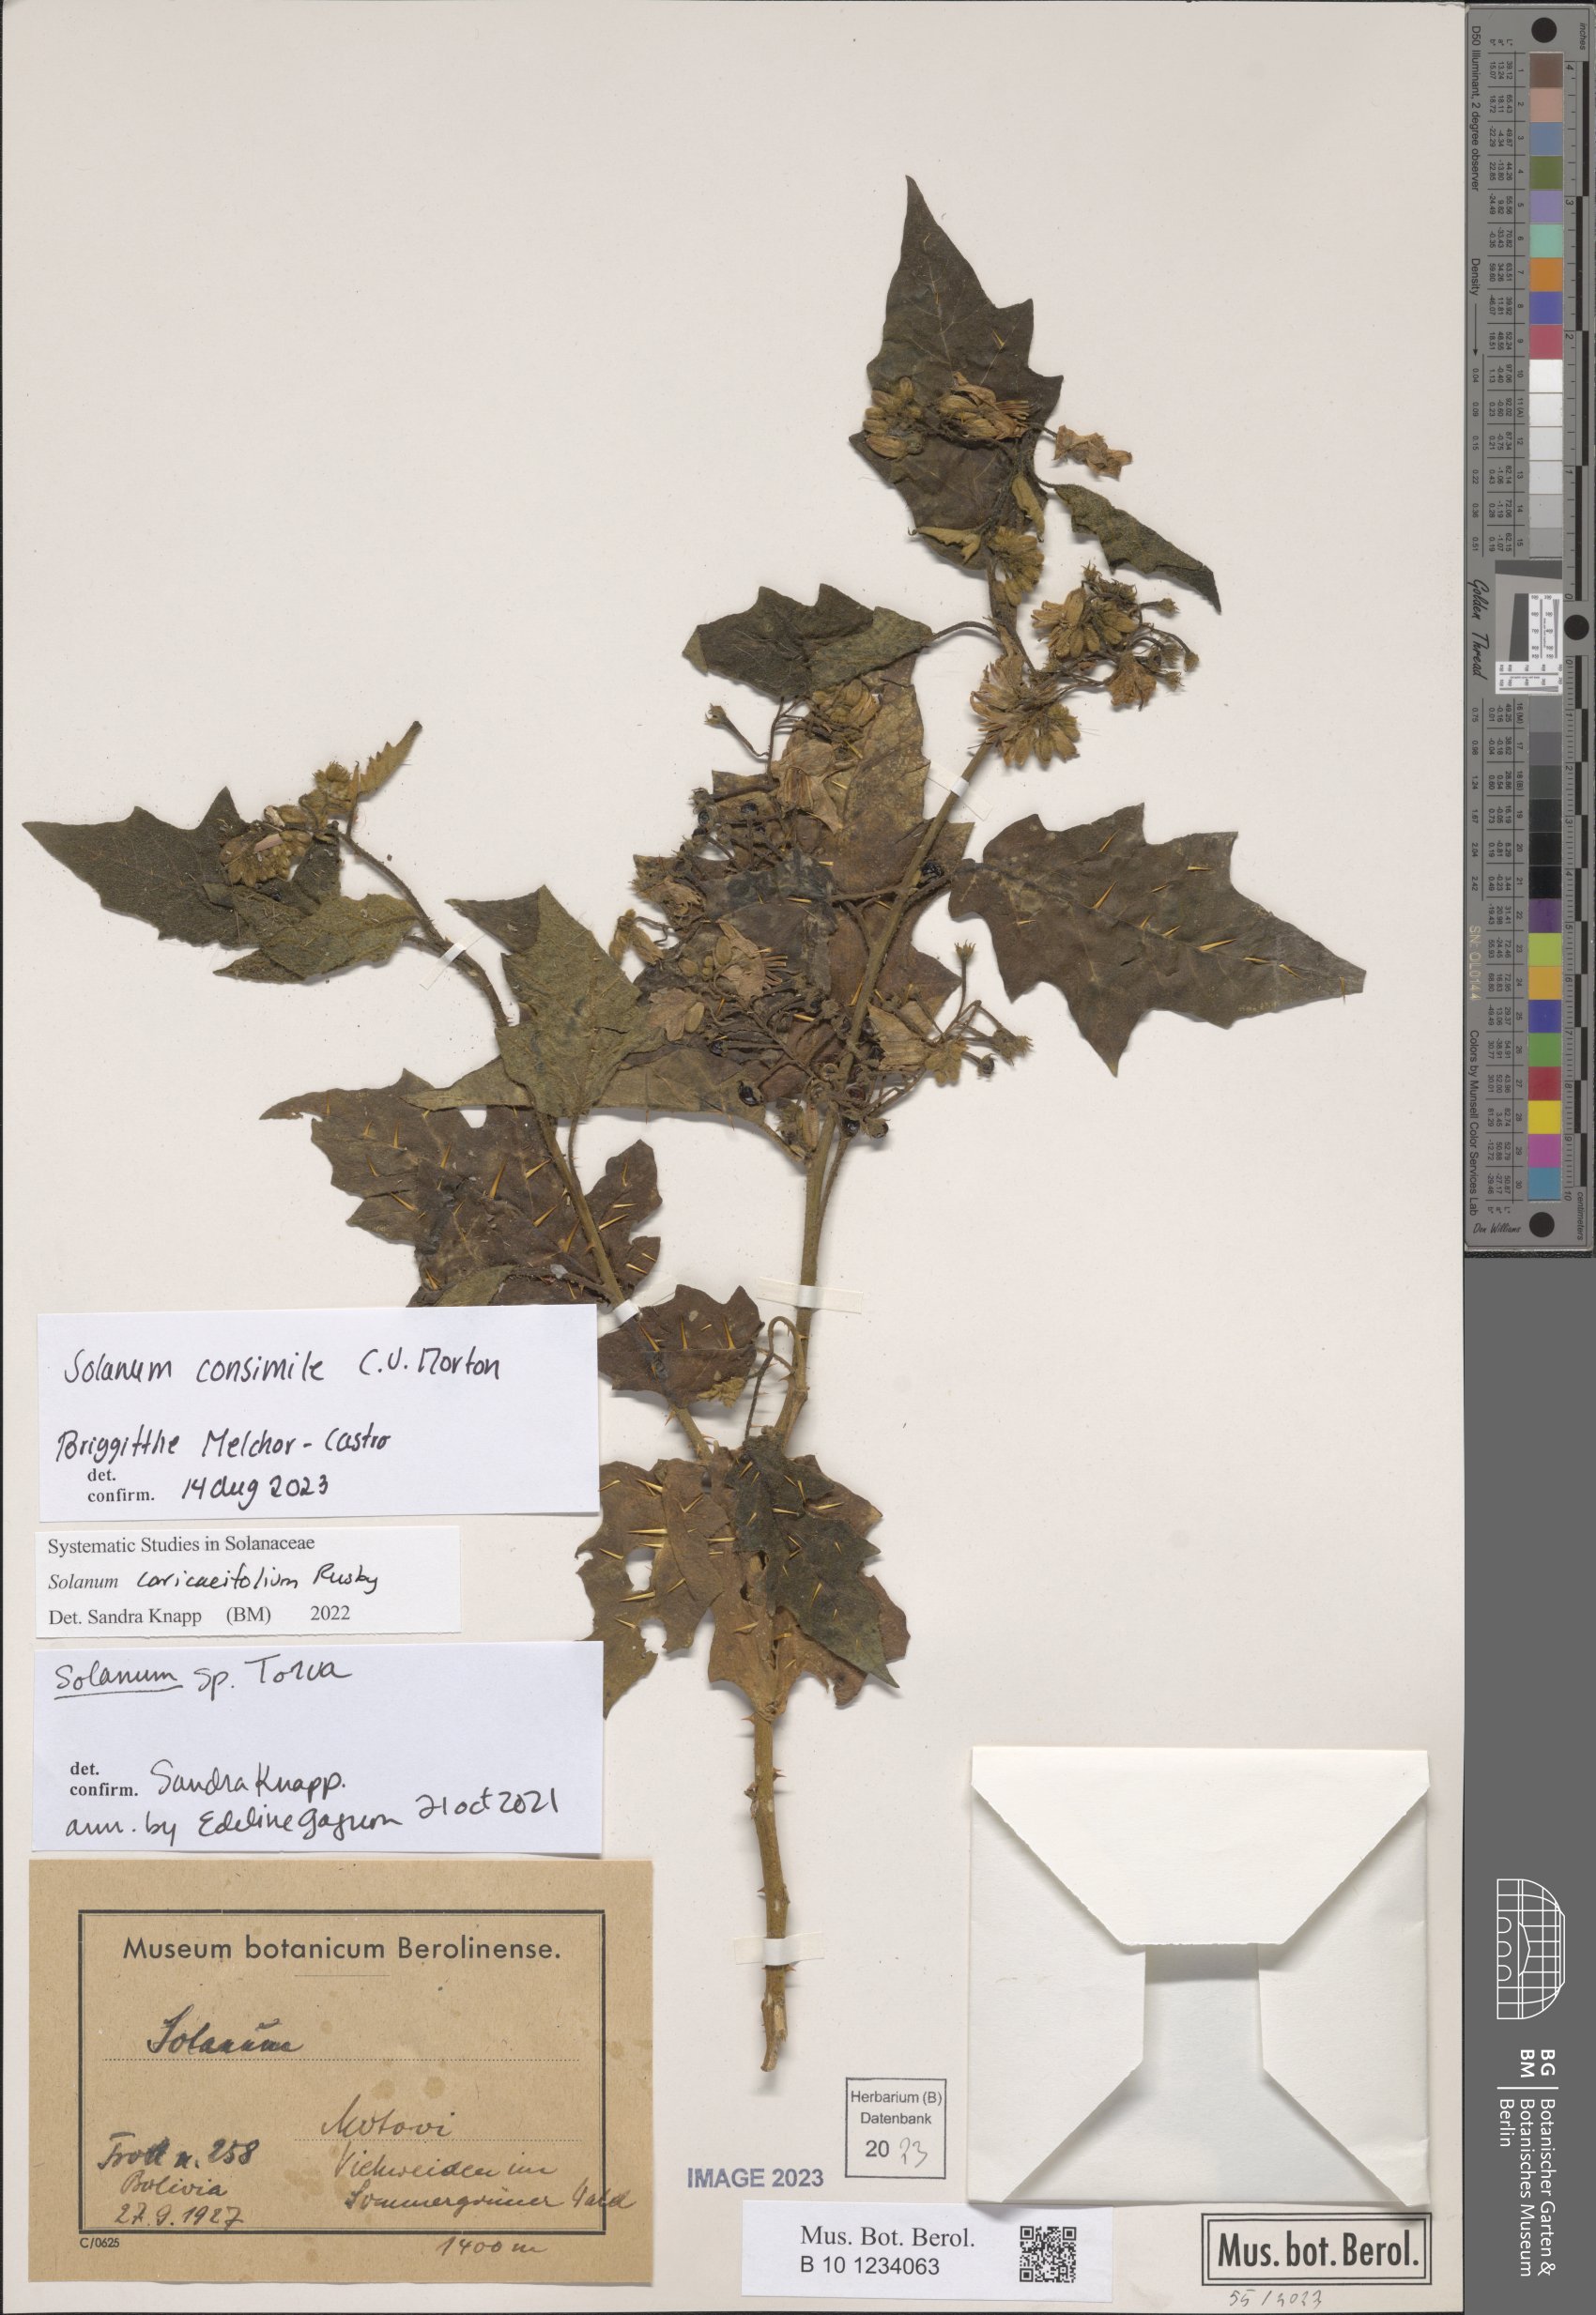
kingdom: Plantae
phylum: Tracheophyta
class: Magnoliopsida
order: Solanales
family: Solanaceae
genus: Solanum
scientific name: Solanum consimile
